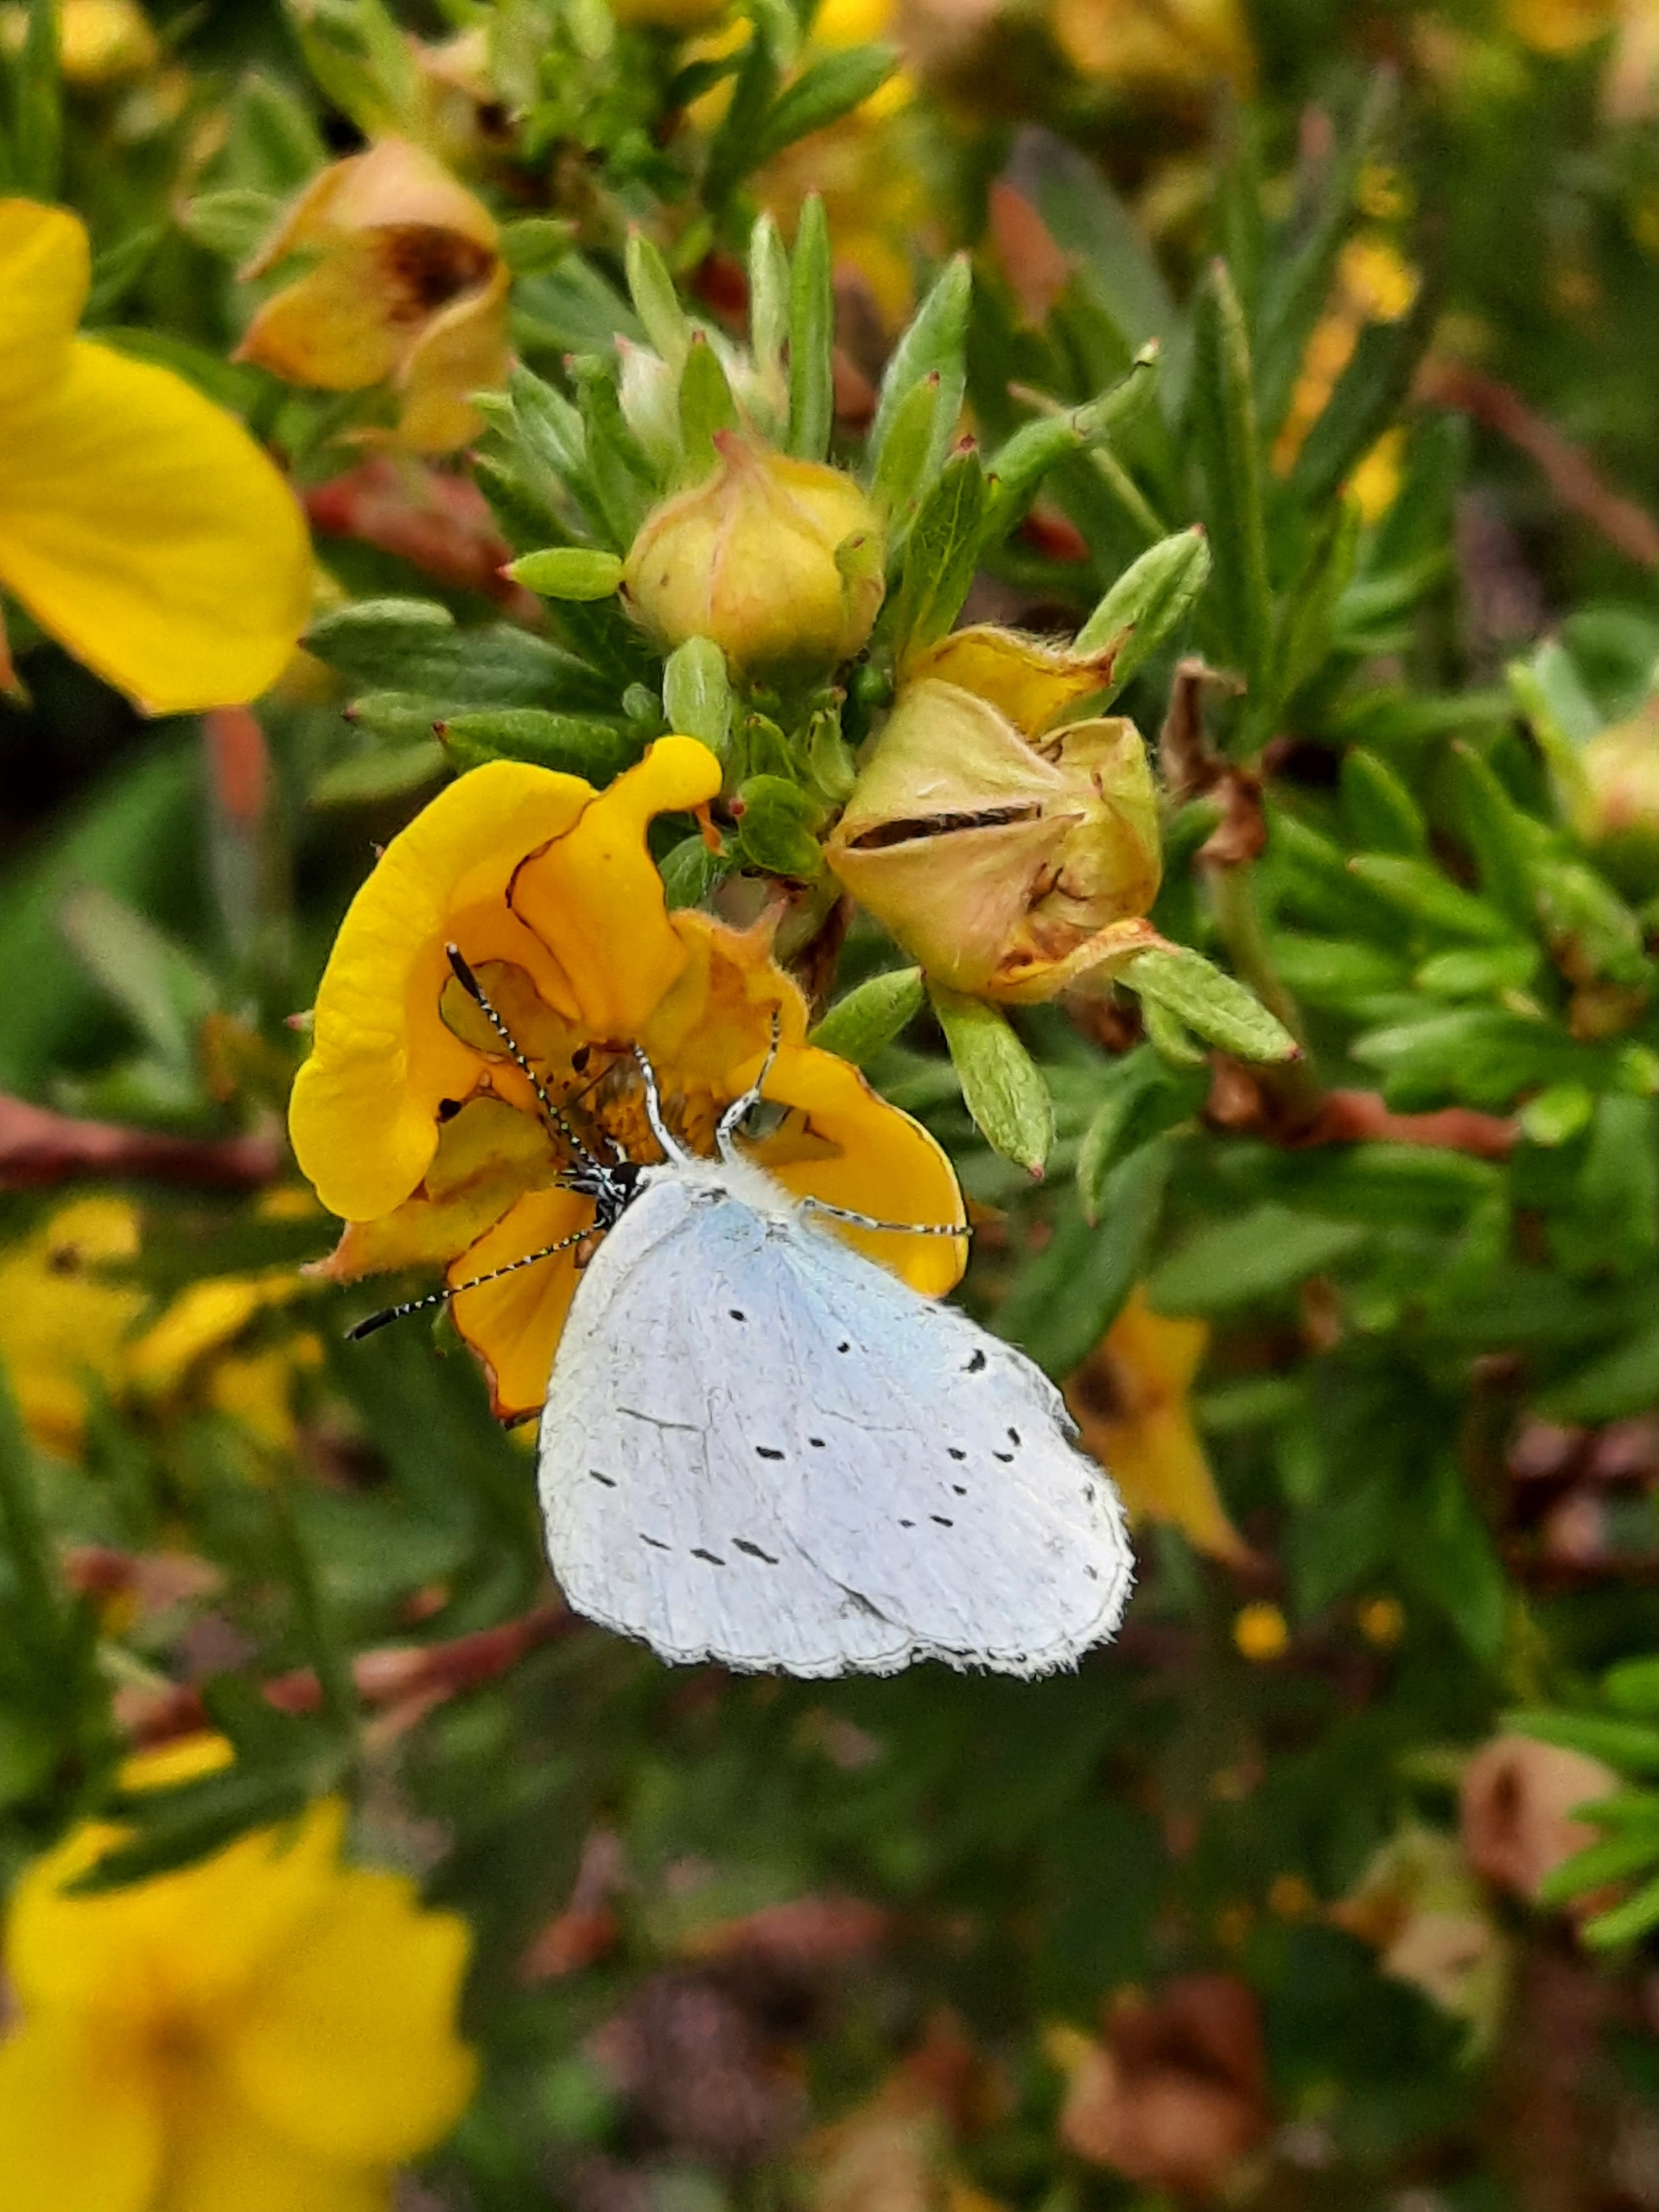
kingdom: Animalia
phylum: Arthropoda
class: Insecta
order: Lepidoptera
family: Lycaenidae
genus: Celastrina
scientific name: Celastrina argiolus
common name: Skovblåfugl
